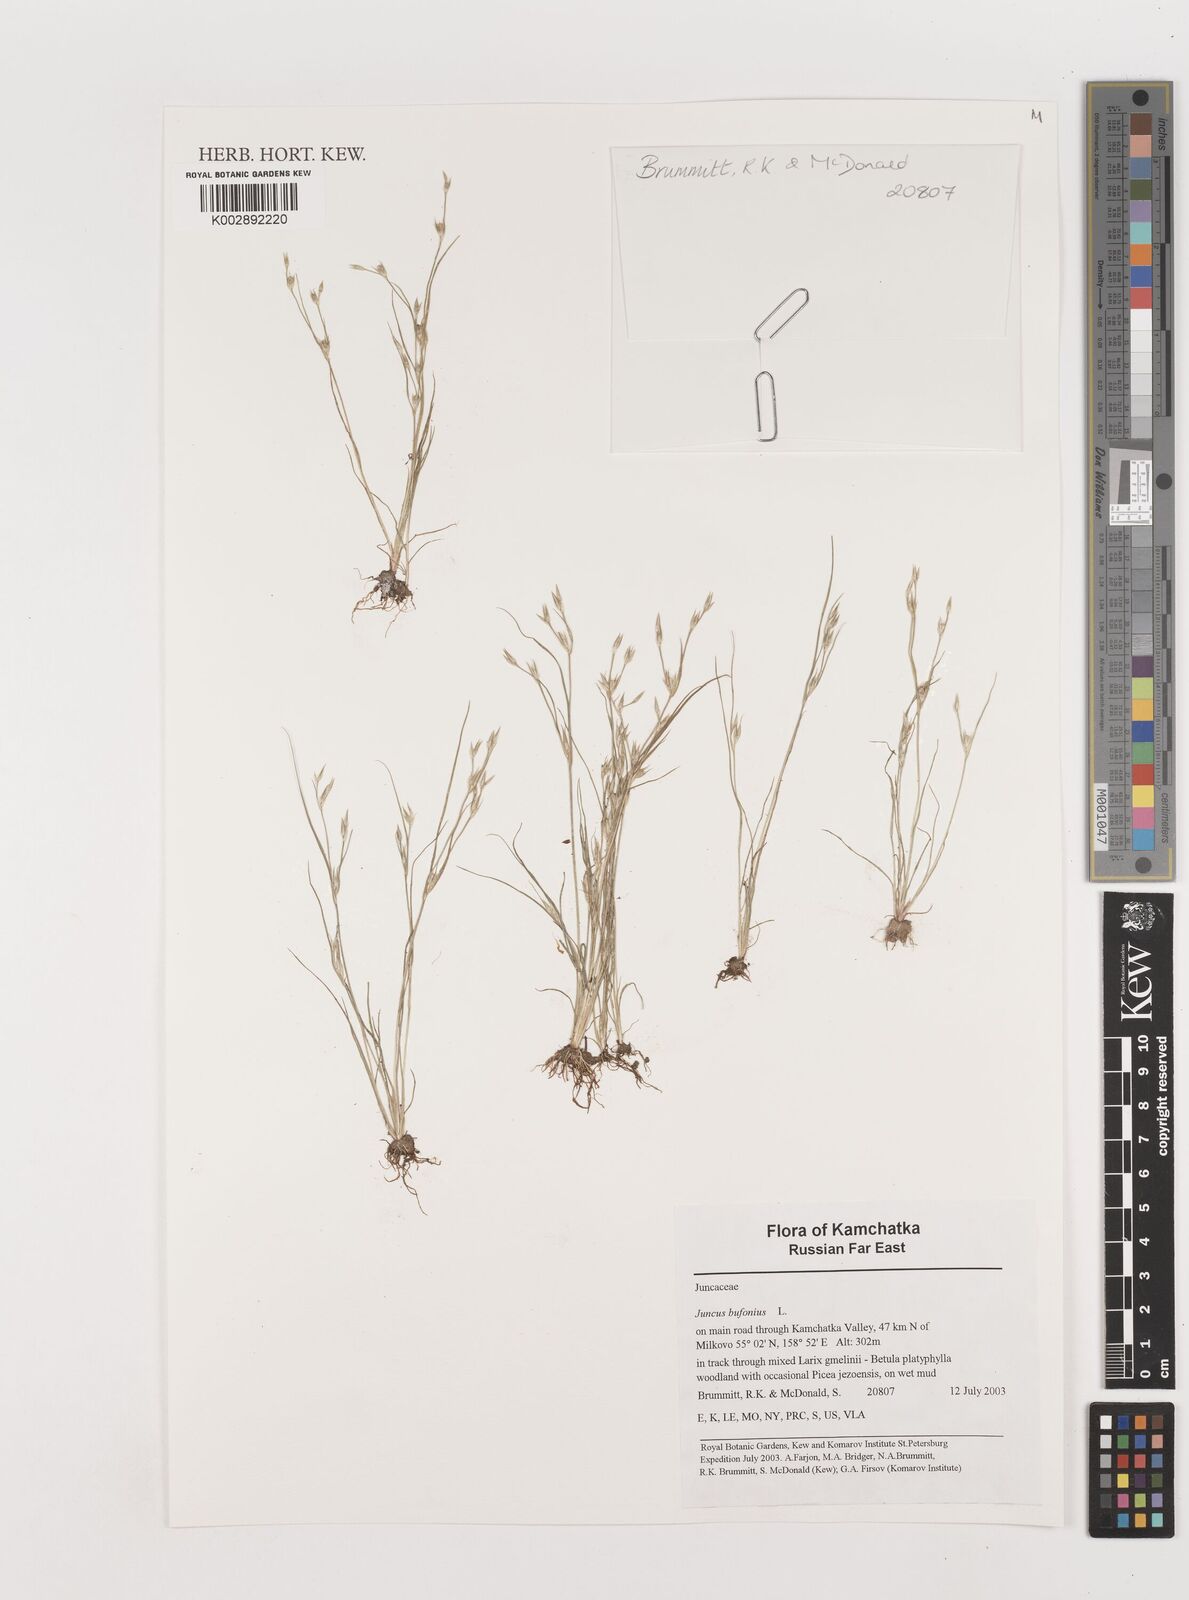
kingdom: Plantae
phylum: Tracheophyta
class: Liliopsida
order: Poales
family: Juncaceae
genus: Juncus
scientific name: Juncus bufonius
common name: Toad rush
